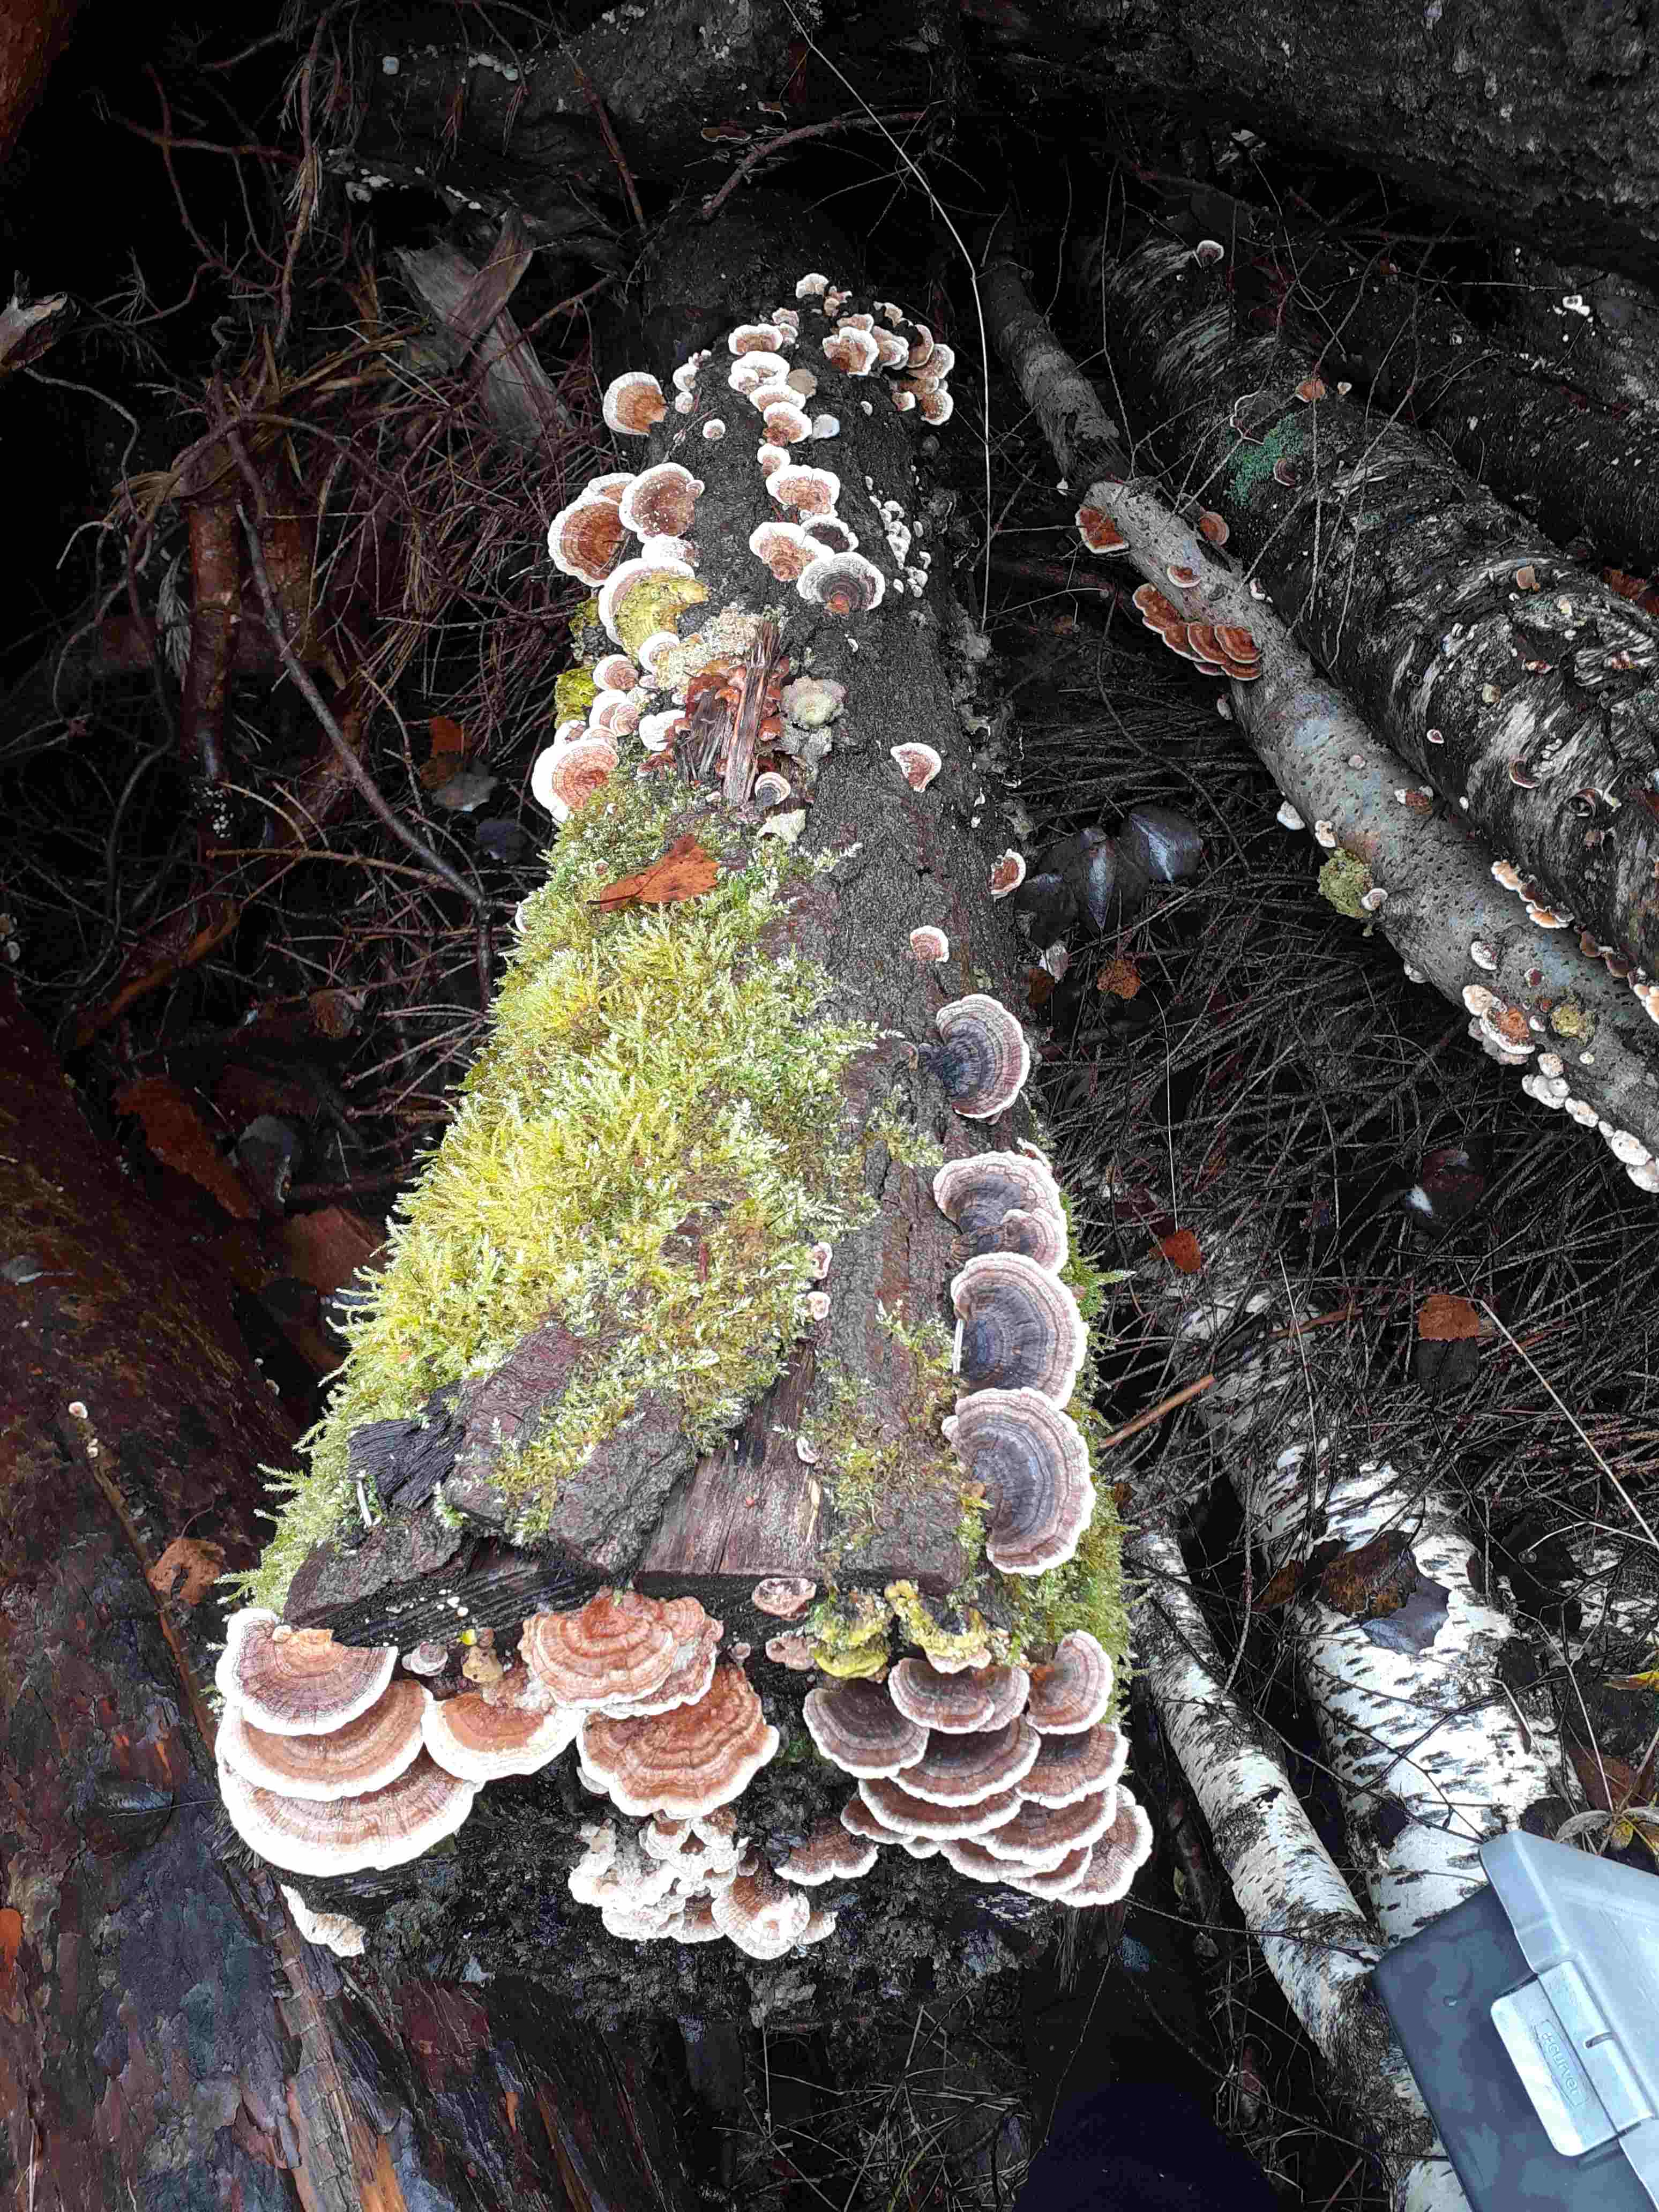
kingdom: Fungi
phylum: Basidiomycota
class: Agaricomycetes
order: Polyporales
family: Polyporaceae
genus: Trametes
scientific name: Trametes ochracea
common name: bæltet læderporesvamp
